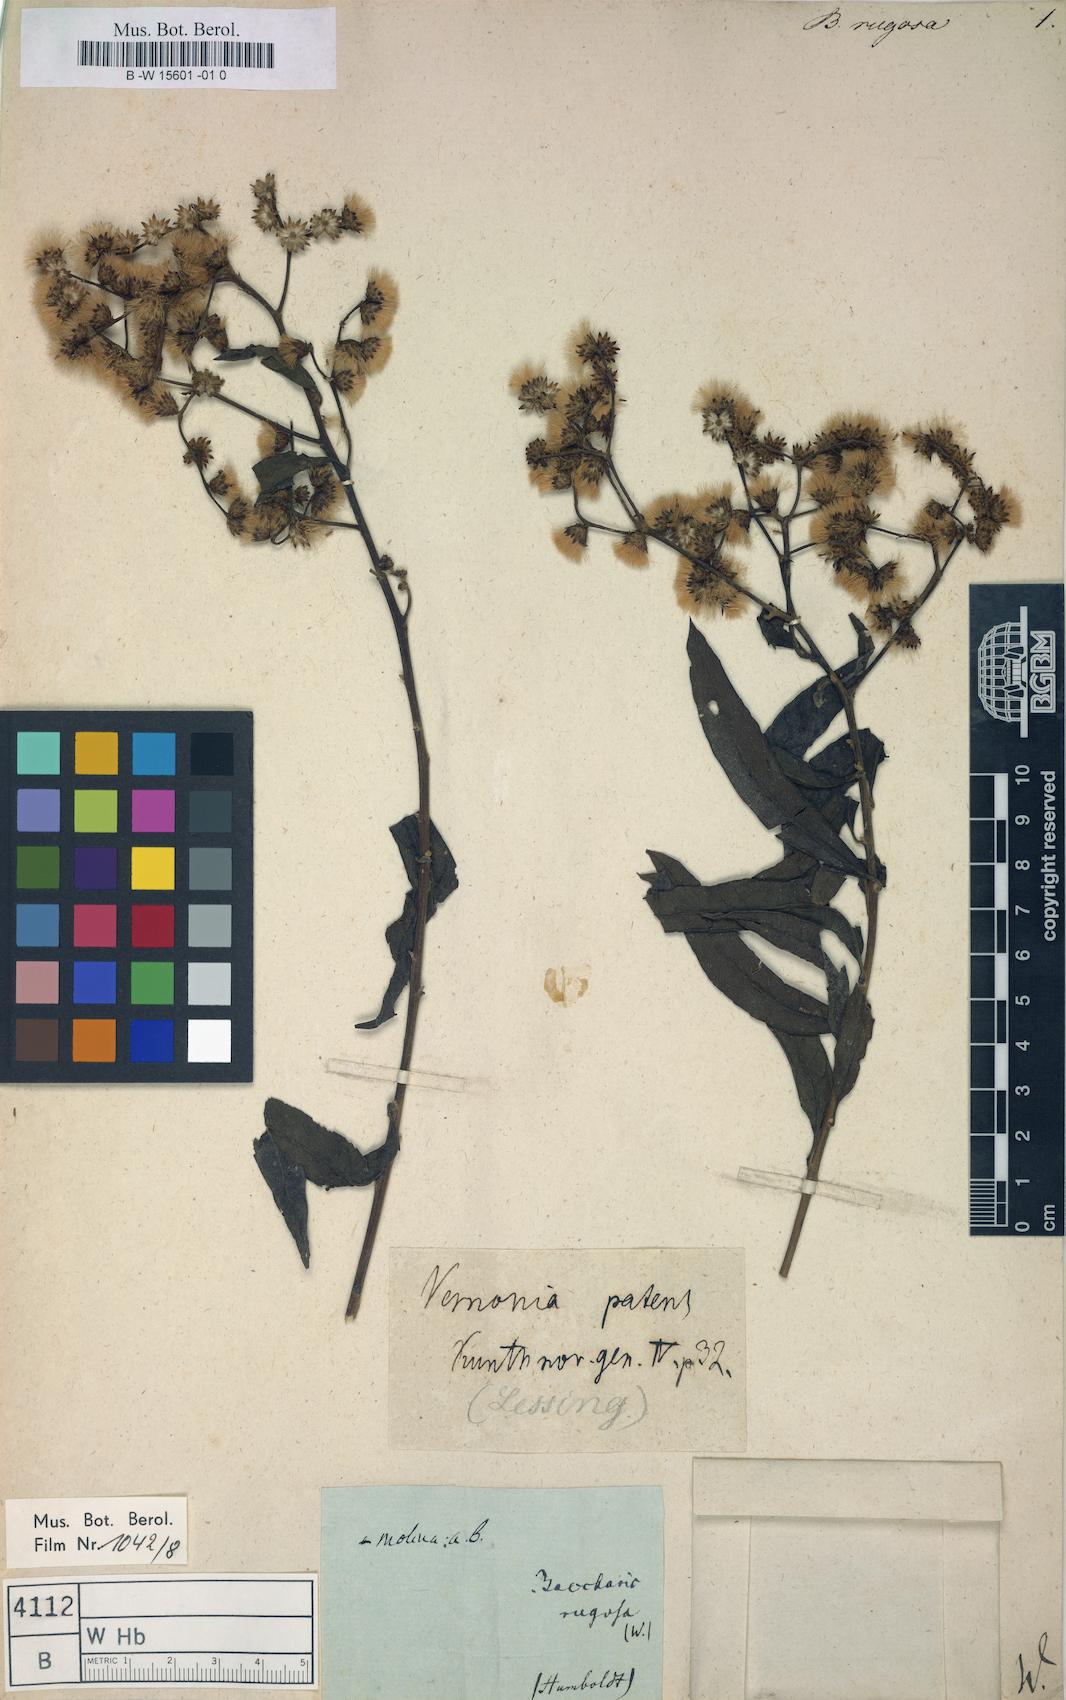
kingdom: Plantae
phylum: Tracheophyta
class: Magnoliopsida
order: Asterales
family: Asteraceae
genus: Vernonanthura
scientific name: Vernonanthura patens
